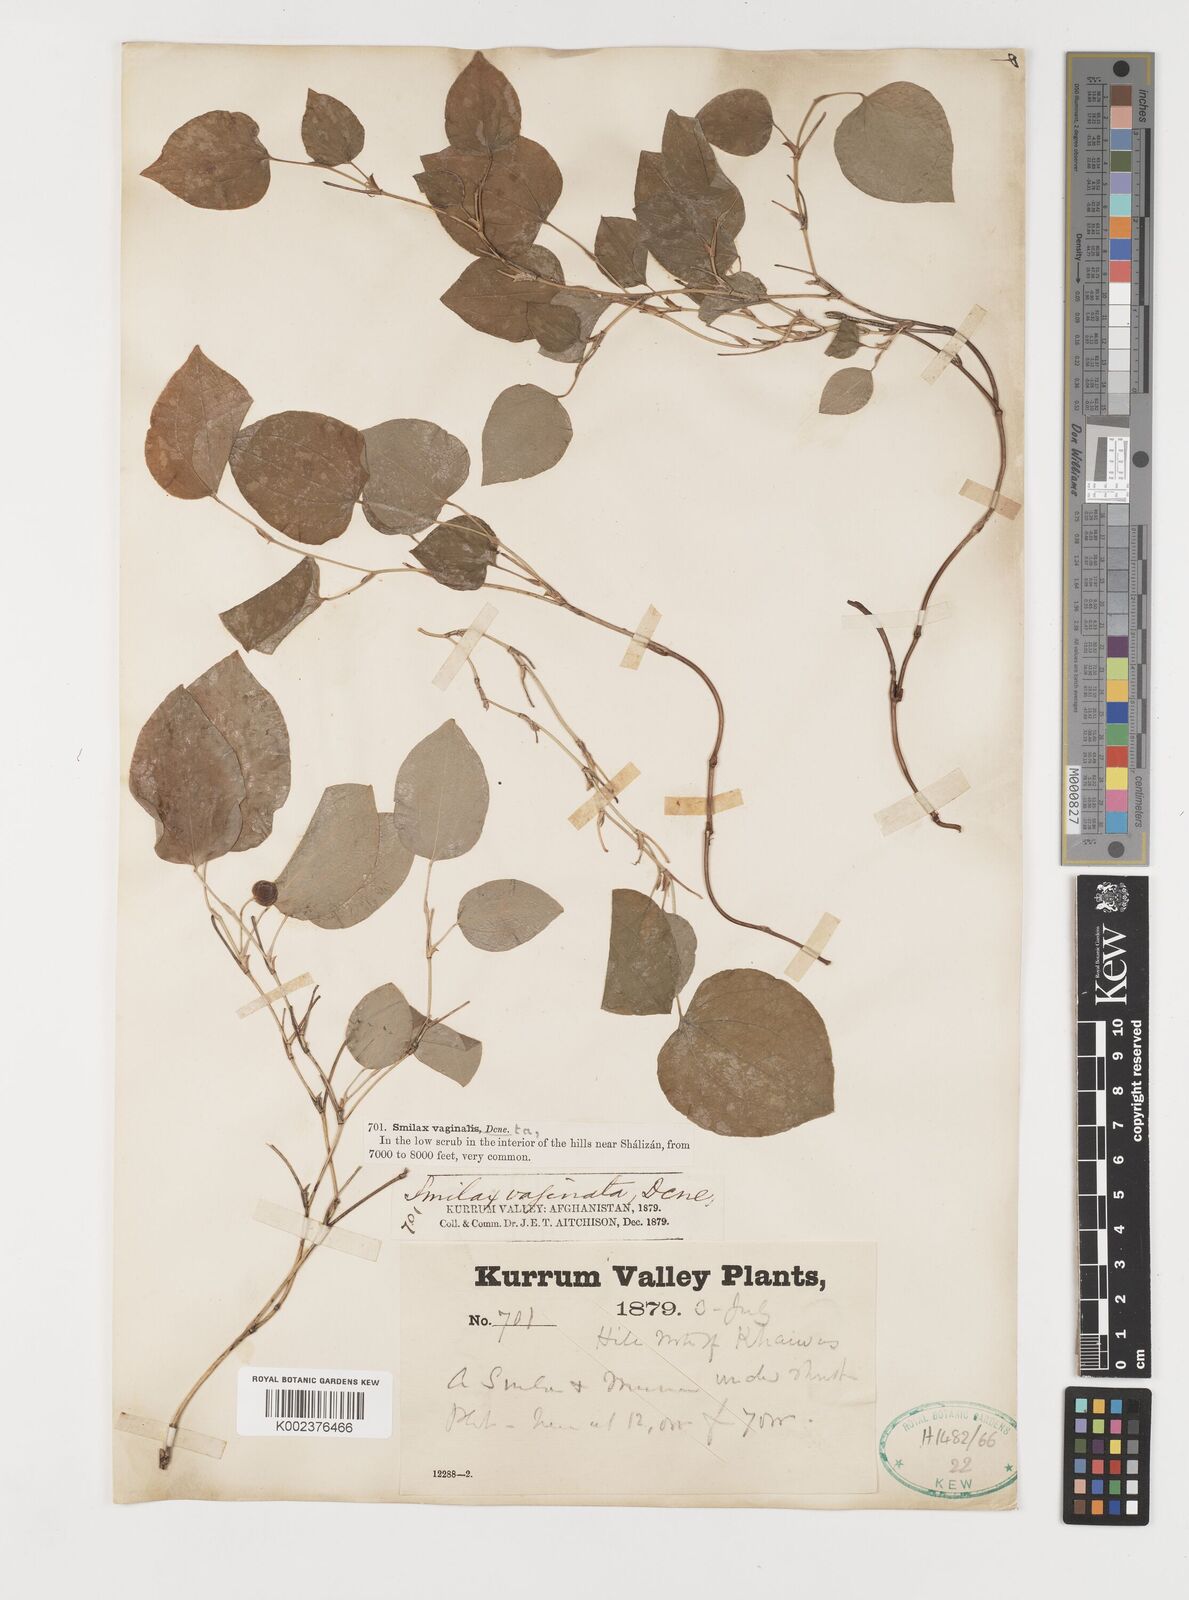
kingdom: Plantae
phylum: Tracheophyta
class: Liliopsida
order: Liliales
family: Smilacaceae
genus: Smilax
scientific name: Smilax vaginata
